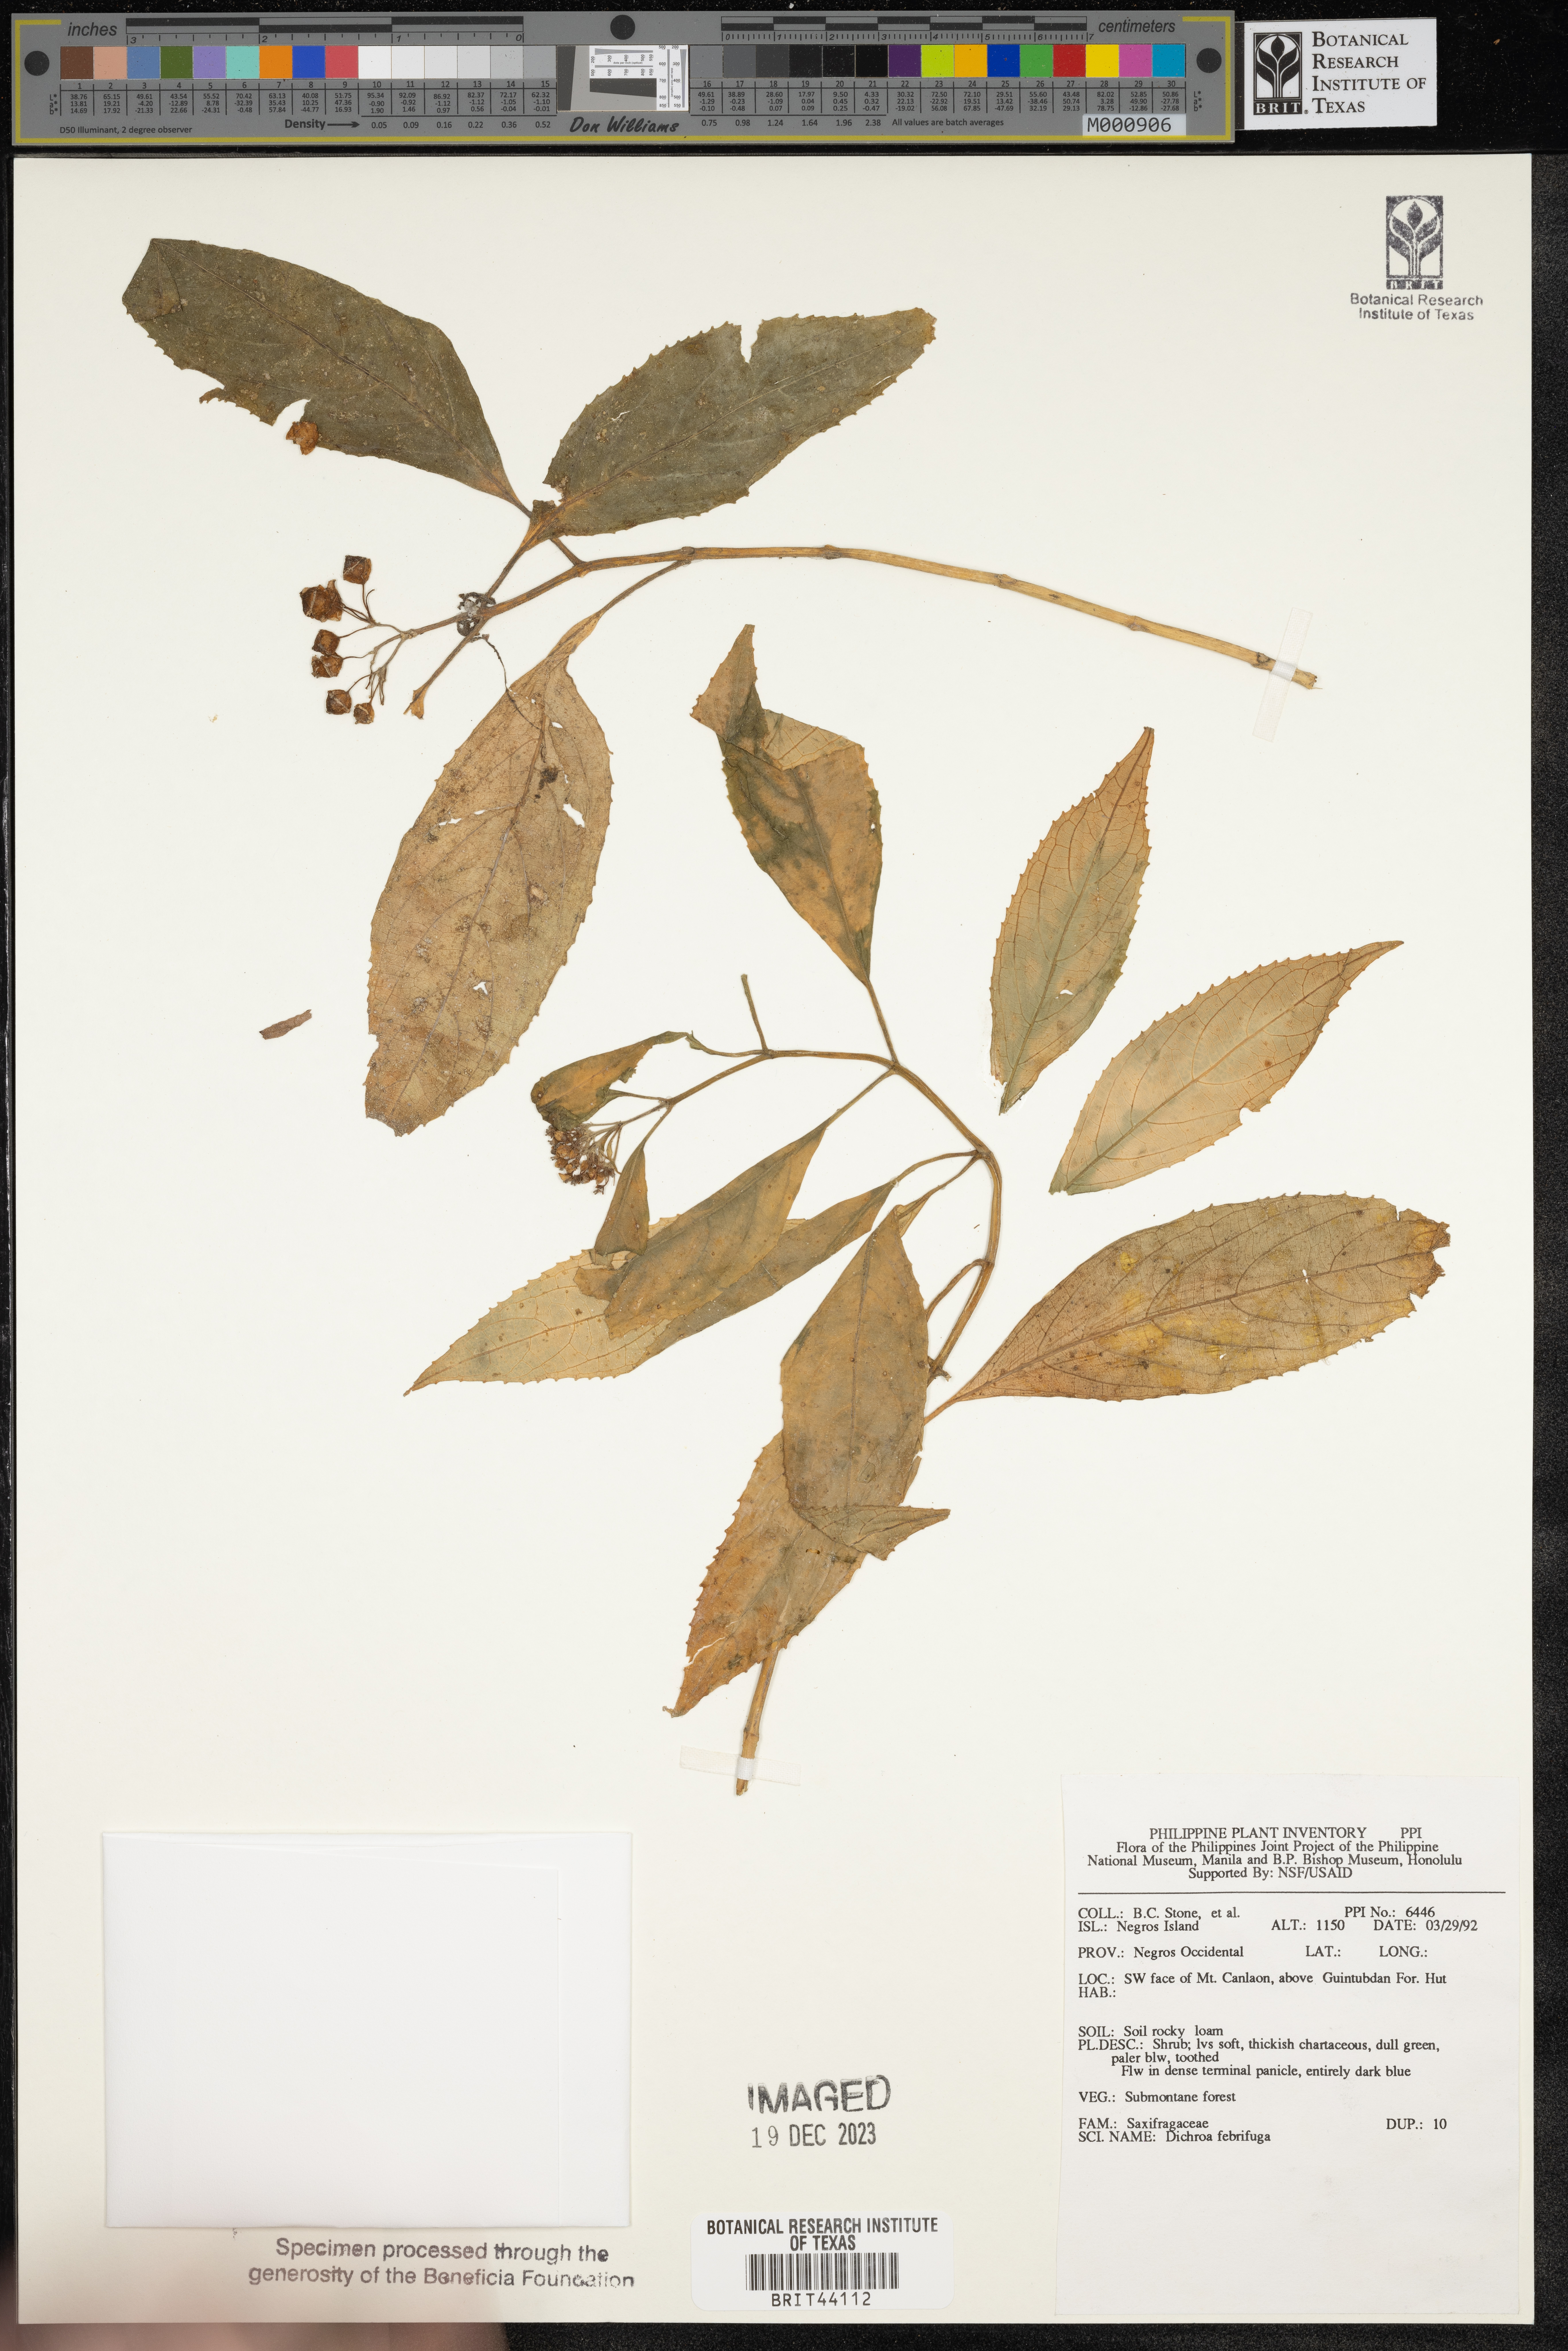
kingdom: Plantae
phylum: Tracheophyta
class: Magnoliopsida
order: Cornales
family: Hydrangeaceae
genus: Hydrangea
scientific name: Hydrangea febrifuga
